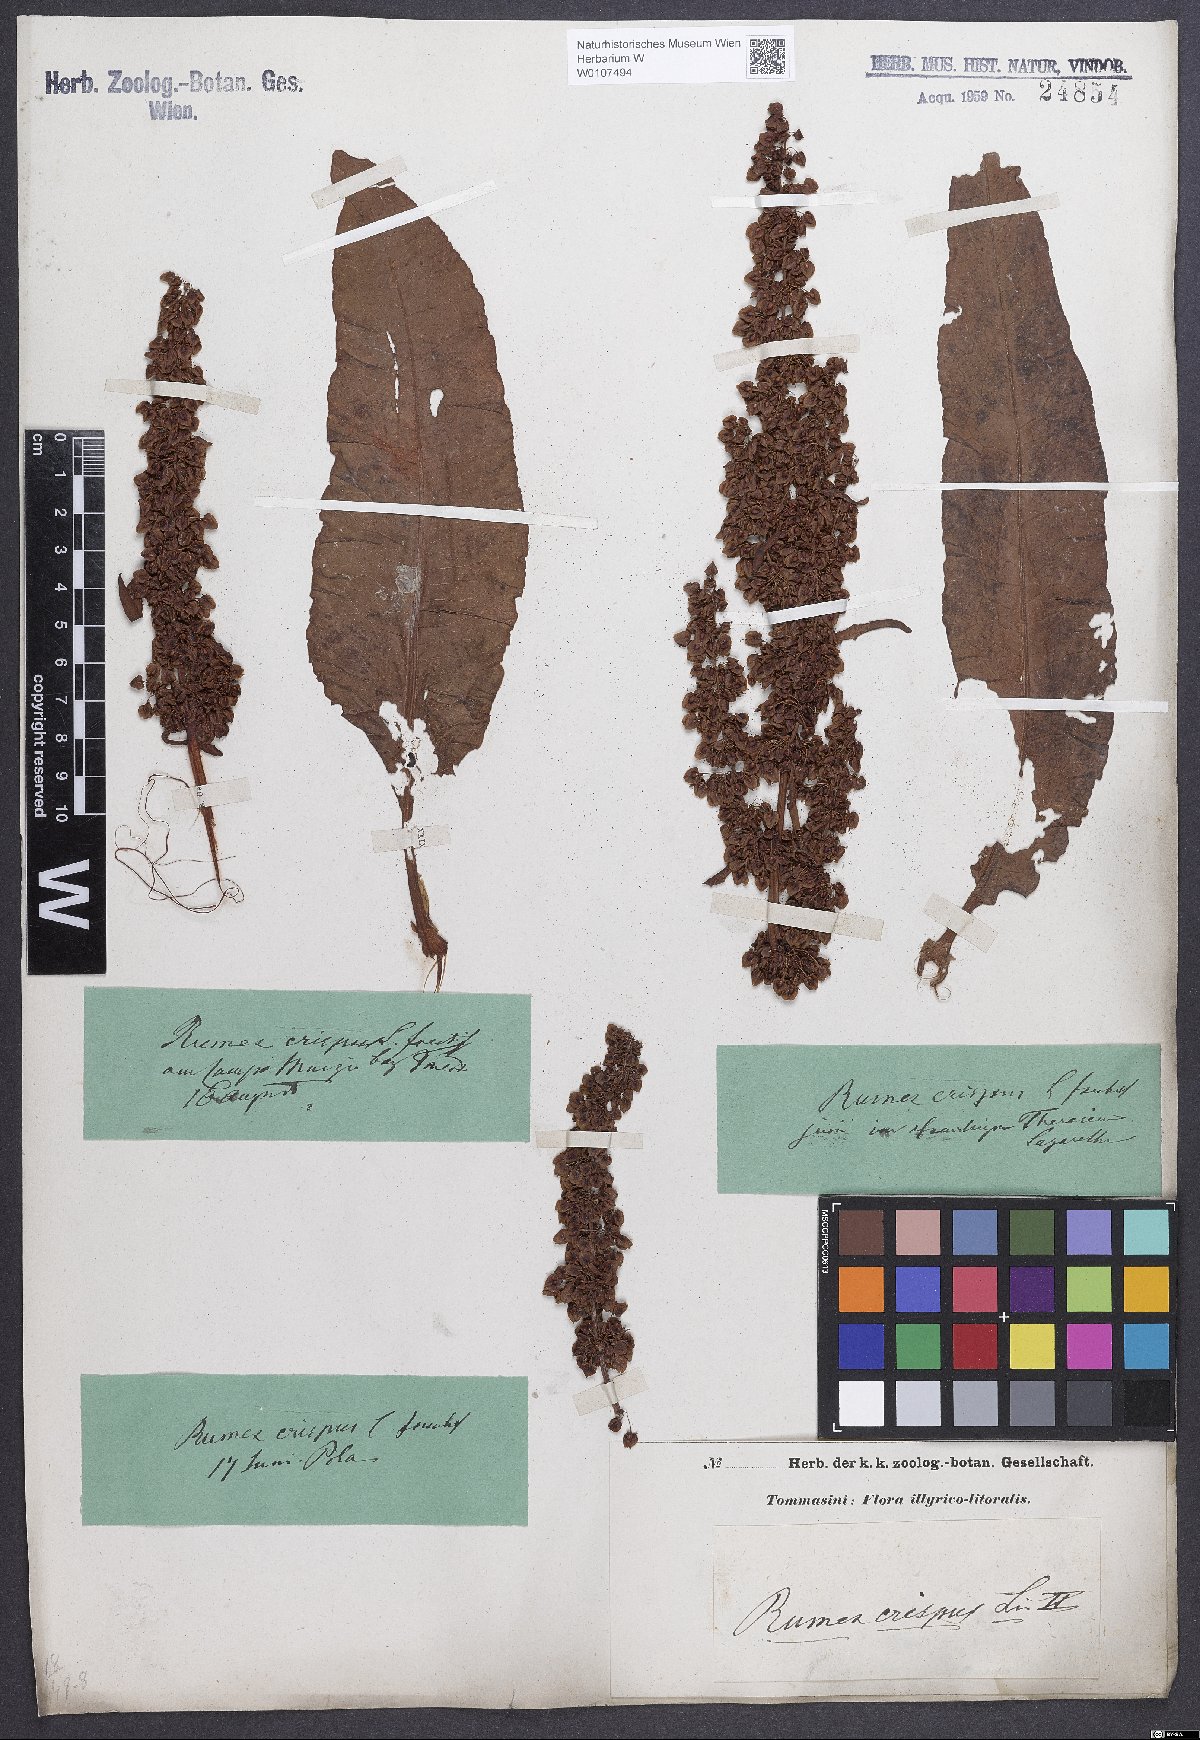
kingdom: Plantae
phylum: Tracheophyta
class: Magnoliopsida
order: Caryophyllales
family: Polygonaceae
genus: Rumex
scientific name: Rumex crispus
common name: Curled dock
